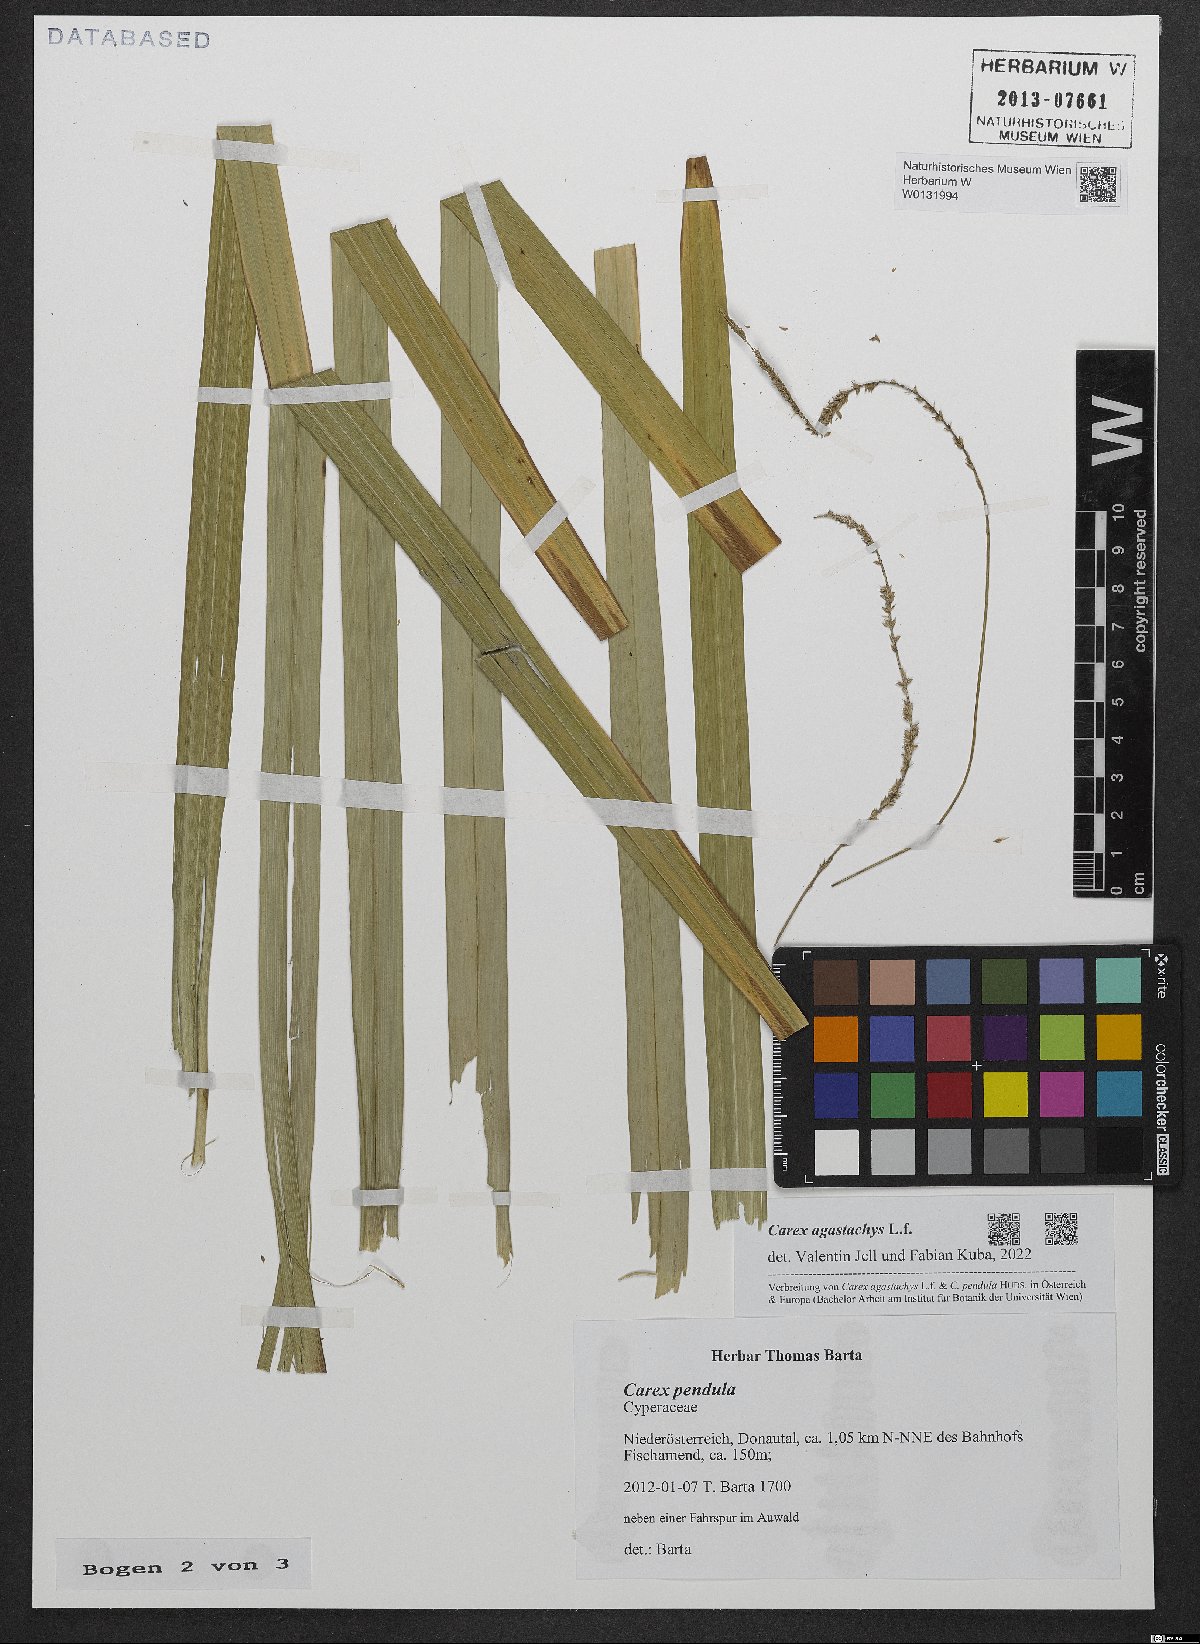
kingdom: Plantae
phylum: Tracheophyta
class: Liliopsida
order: Poales
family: Cyperaceae
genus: Carex
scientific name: Carex agastachys
